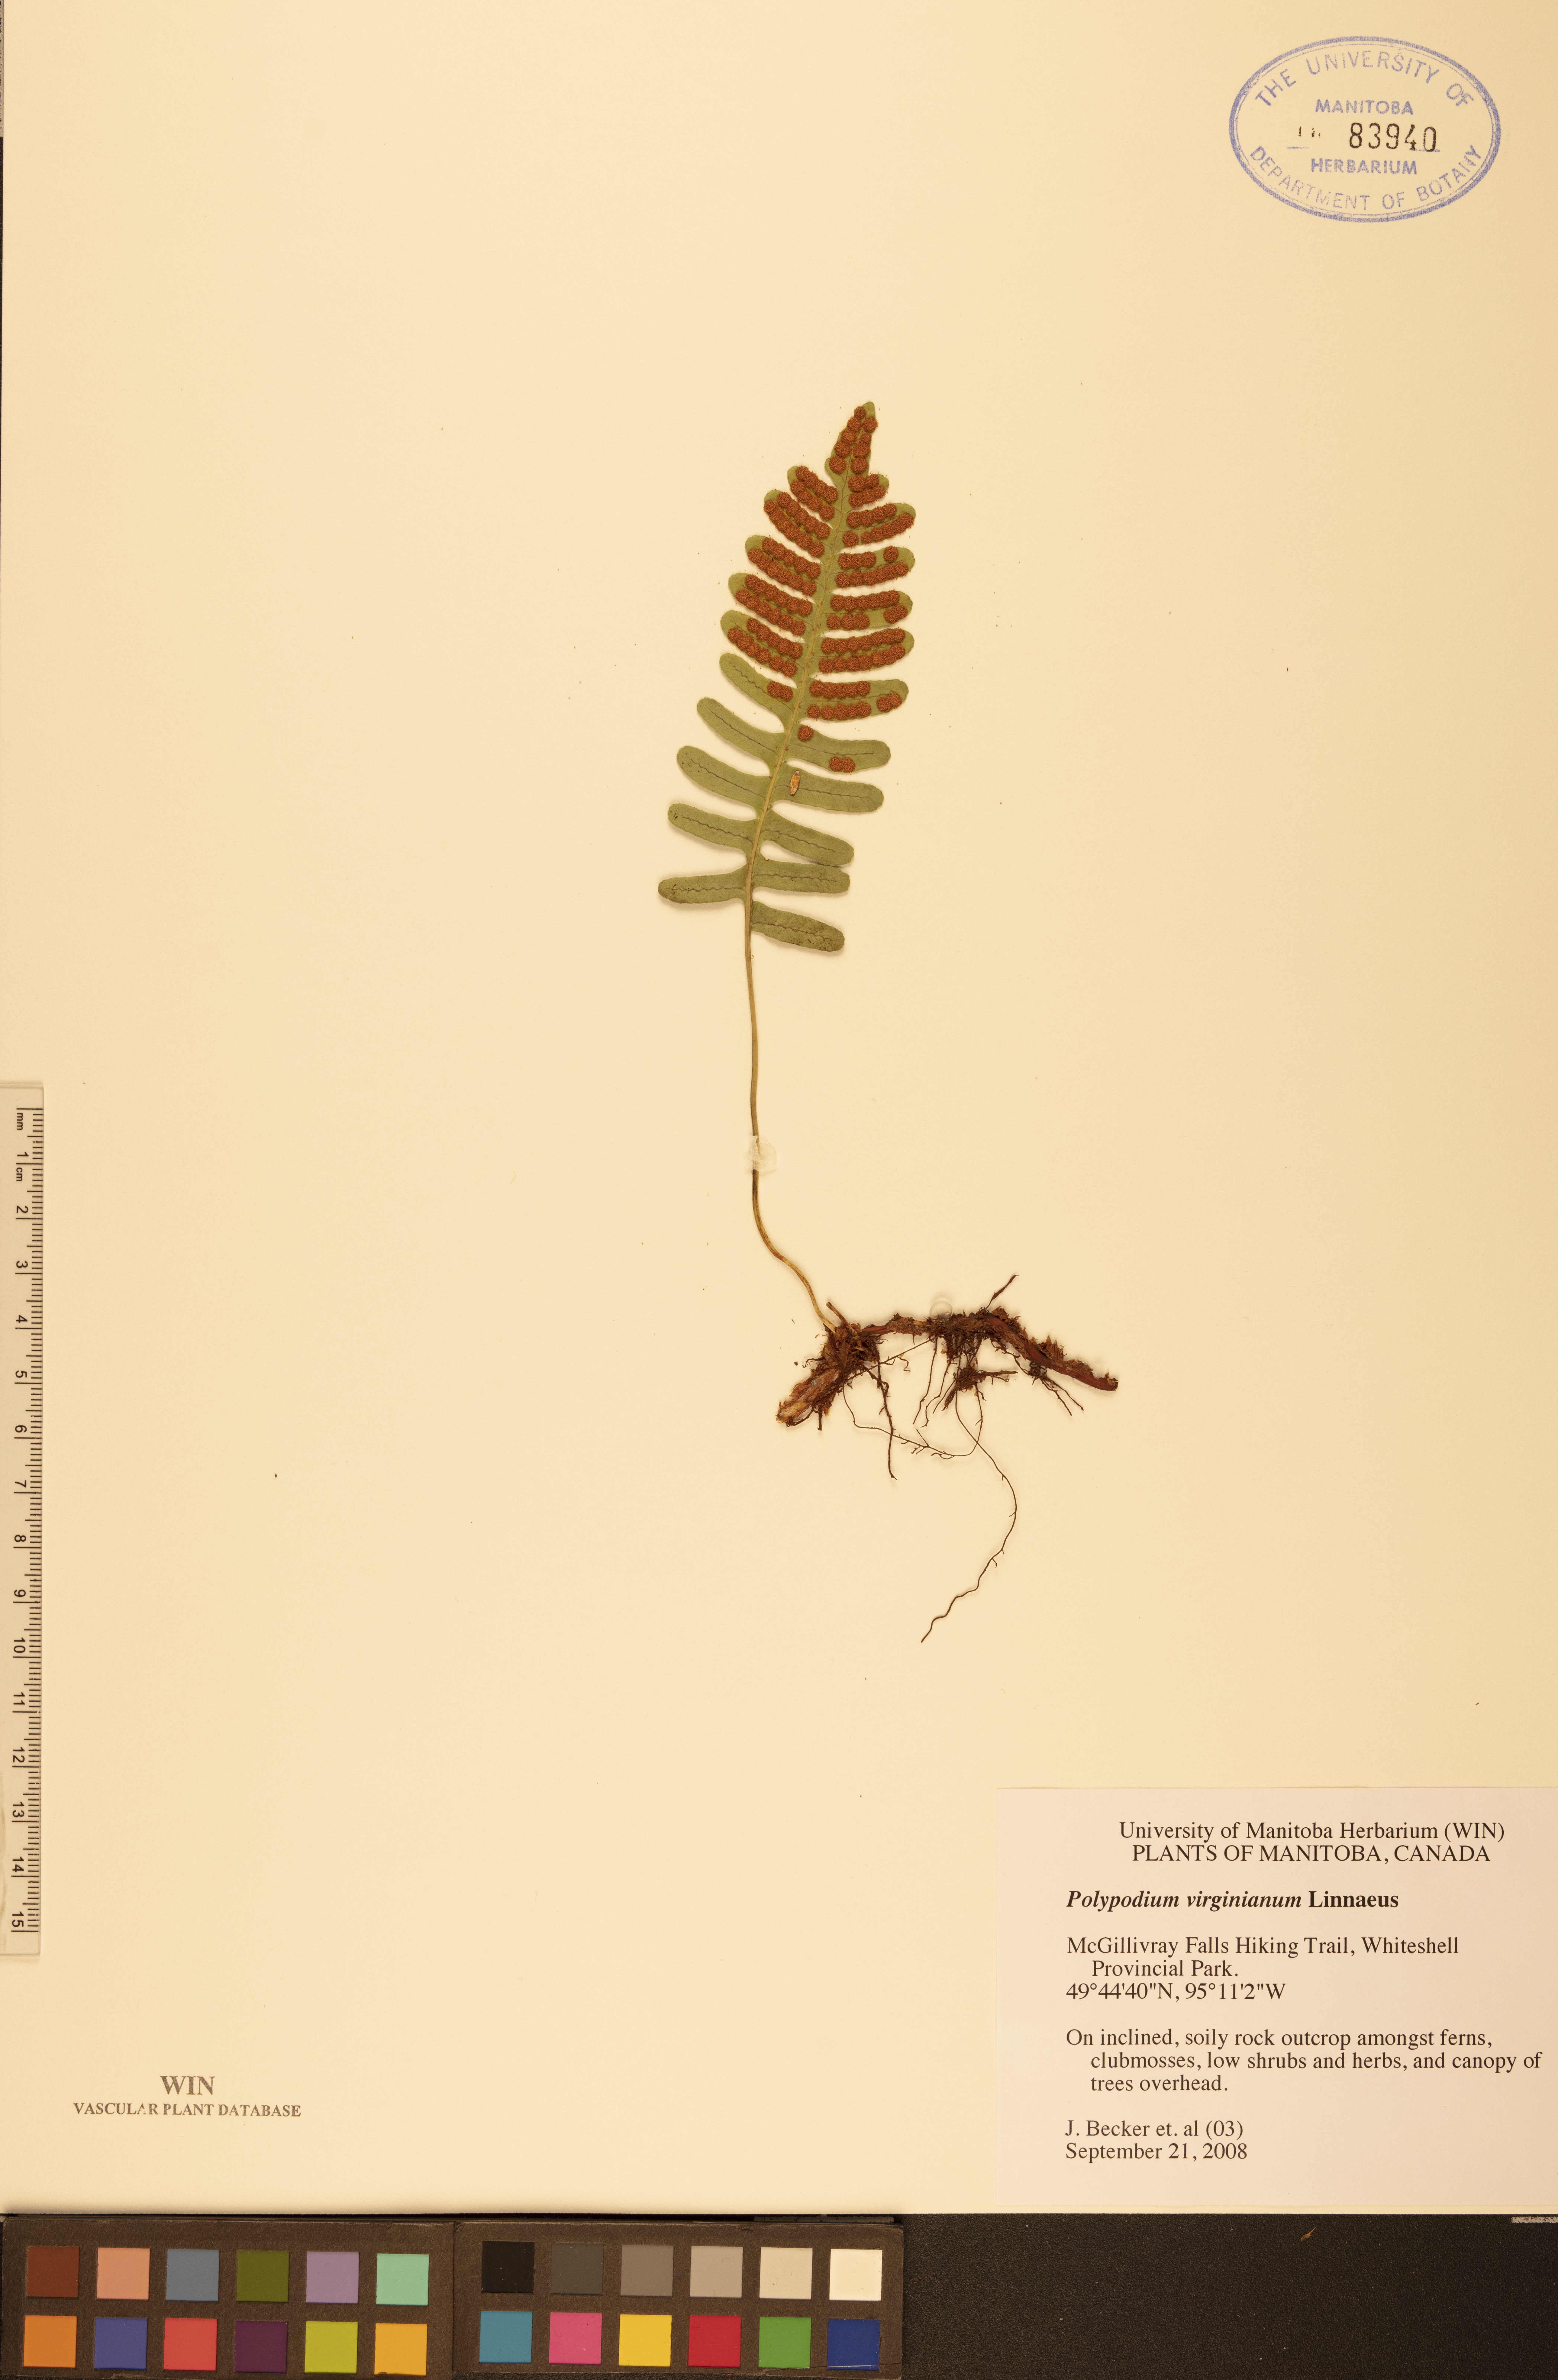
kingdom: Plantae
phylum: Tracheophyta
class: Polypodiopsida
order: Polypodiales
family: Polypodiaceae
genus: Polypodium
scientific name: Polypodium virginianum
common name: American wall fern
